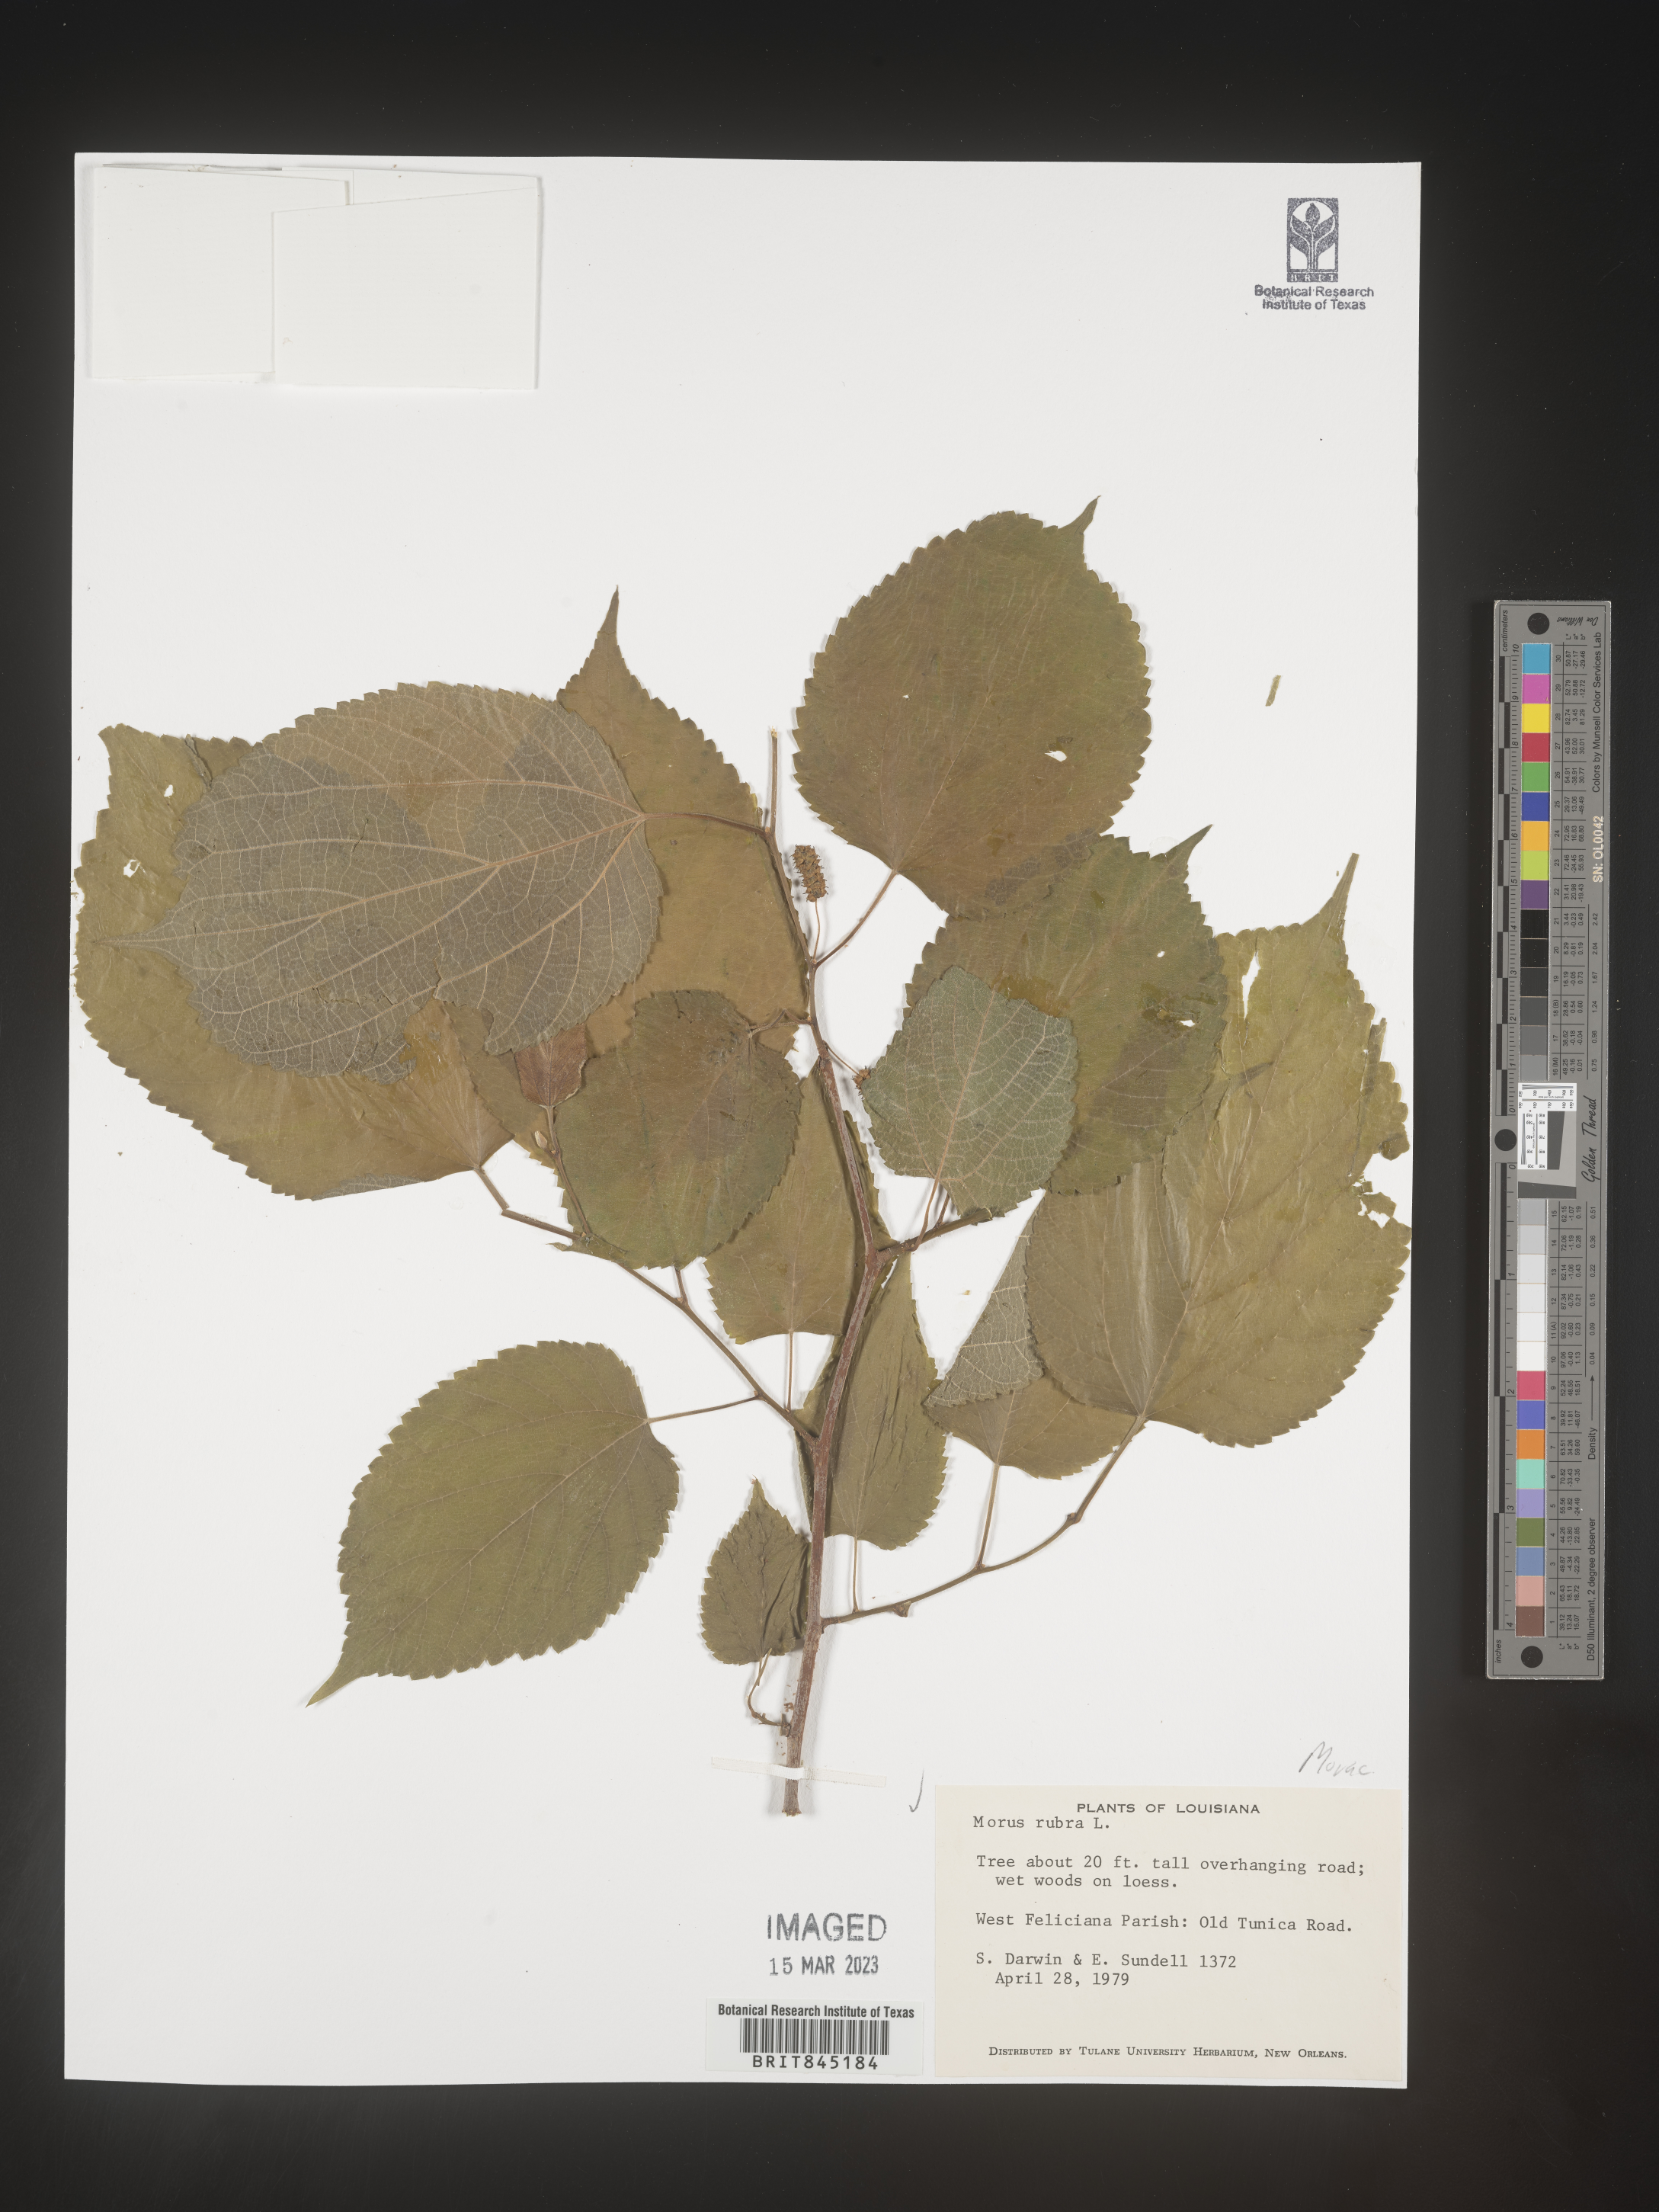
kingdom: Plantae
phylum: Tracheophyta
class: Magnoliopsida
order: Rosales
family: Moraceae
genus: Morus
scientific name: Morus rubra
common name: Red mulberry
